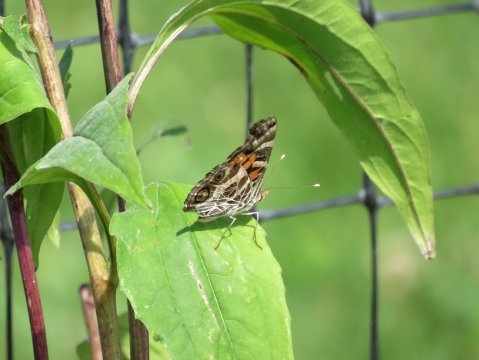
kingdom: Animalia
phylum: Arthropoda
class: Insecta
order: Lepidoptera
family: Nymphalidae
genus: Vanessa
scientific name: Vanessa virginiensis
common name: American Lady
